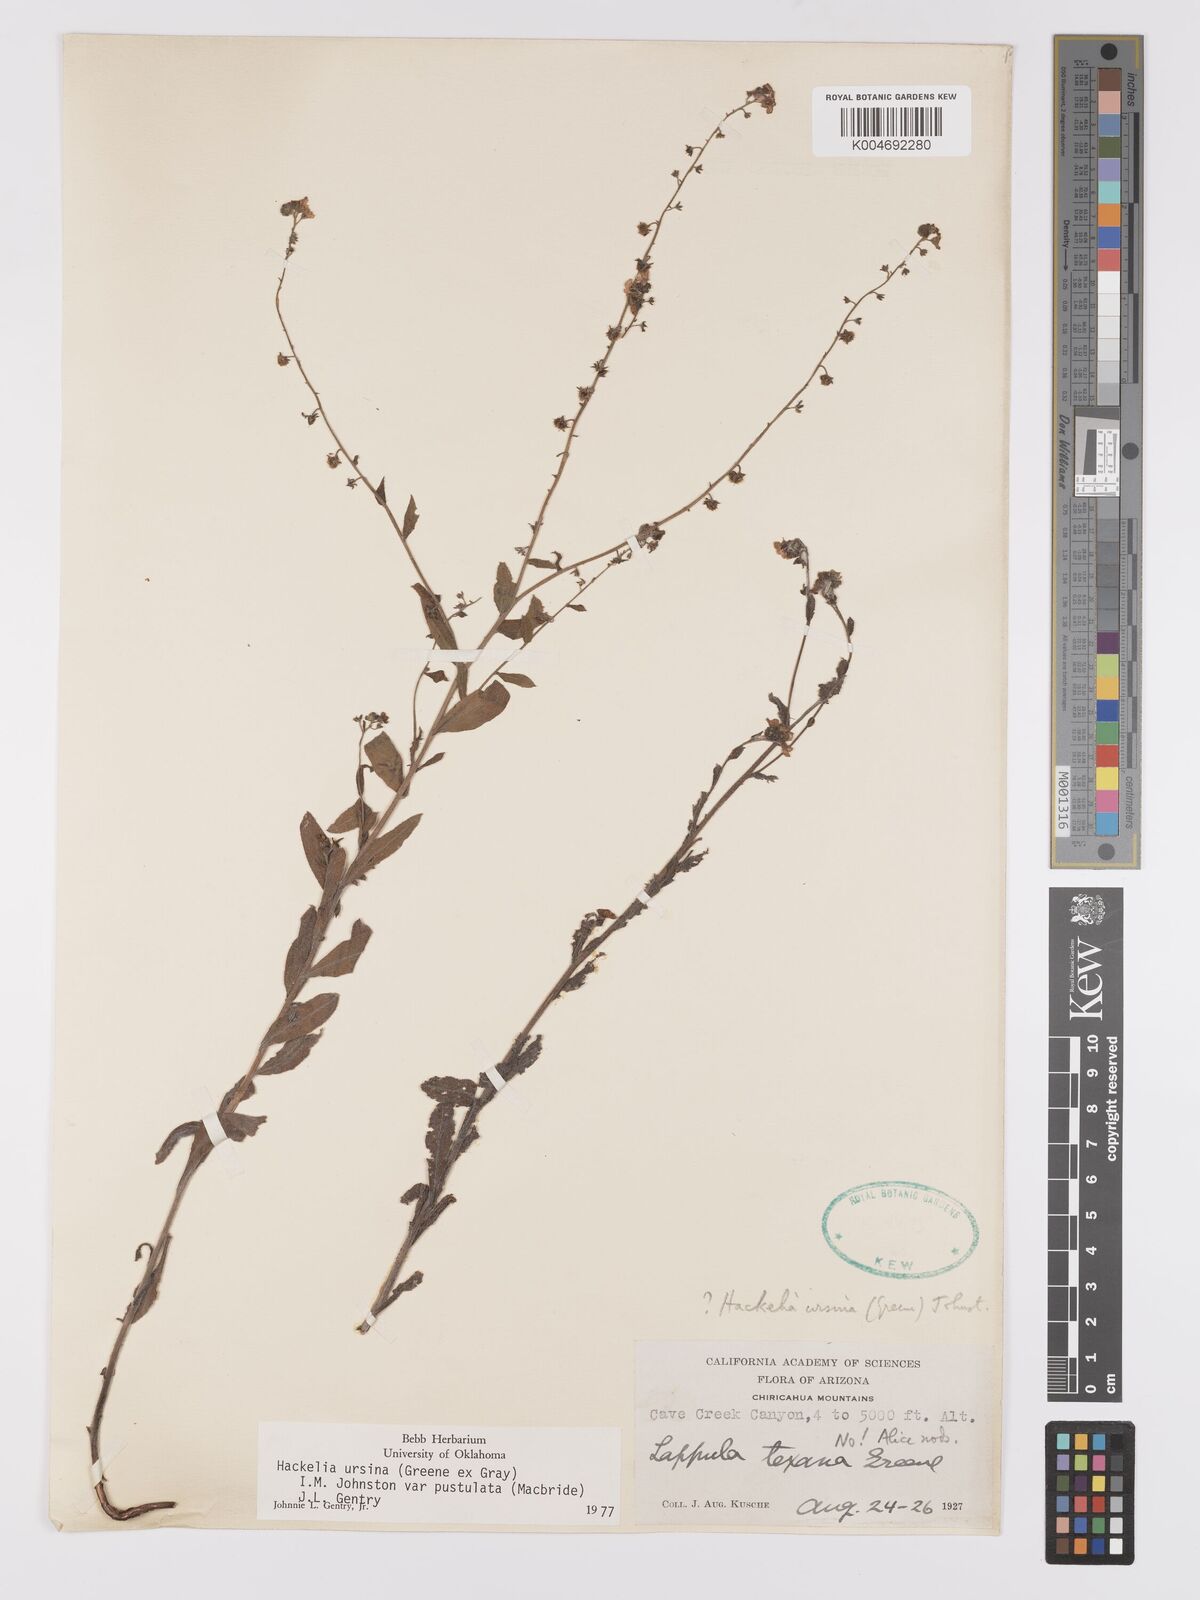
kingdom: Plantae
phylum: Tracheophyta
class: Magnoliopsida
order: Boraginales
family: Boraginaceae
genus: Hackelia
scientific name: Hackelia ursina
